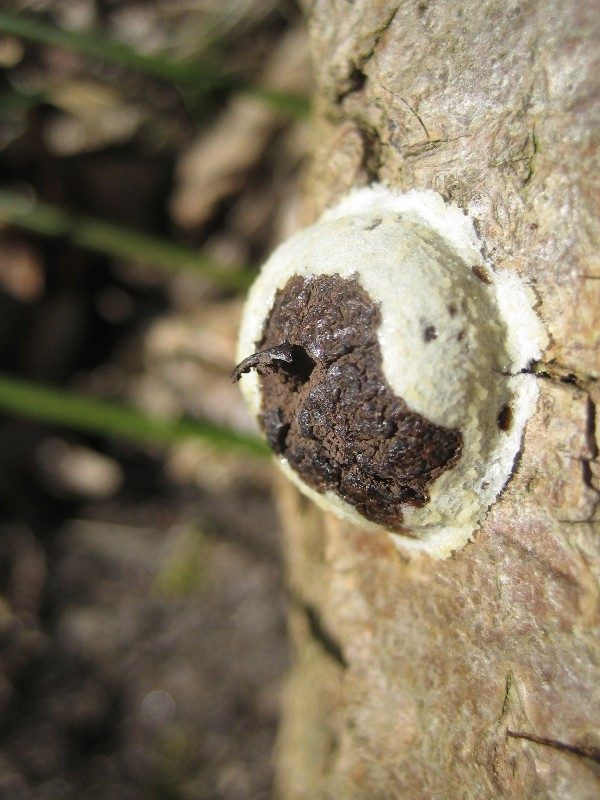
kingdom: Protozoa
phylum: Mycetozoa
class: Myxomycetes
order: Cribrariales
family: Tubiferaceae
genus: Reticularia
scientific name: Reticularia lycoperdon
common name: skinnende støvpude
